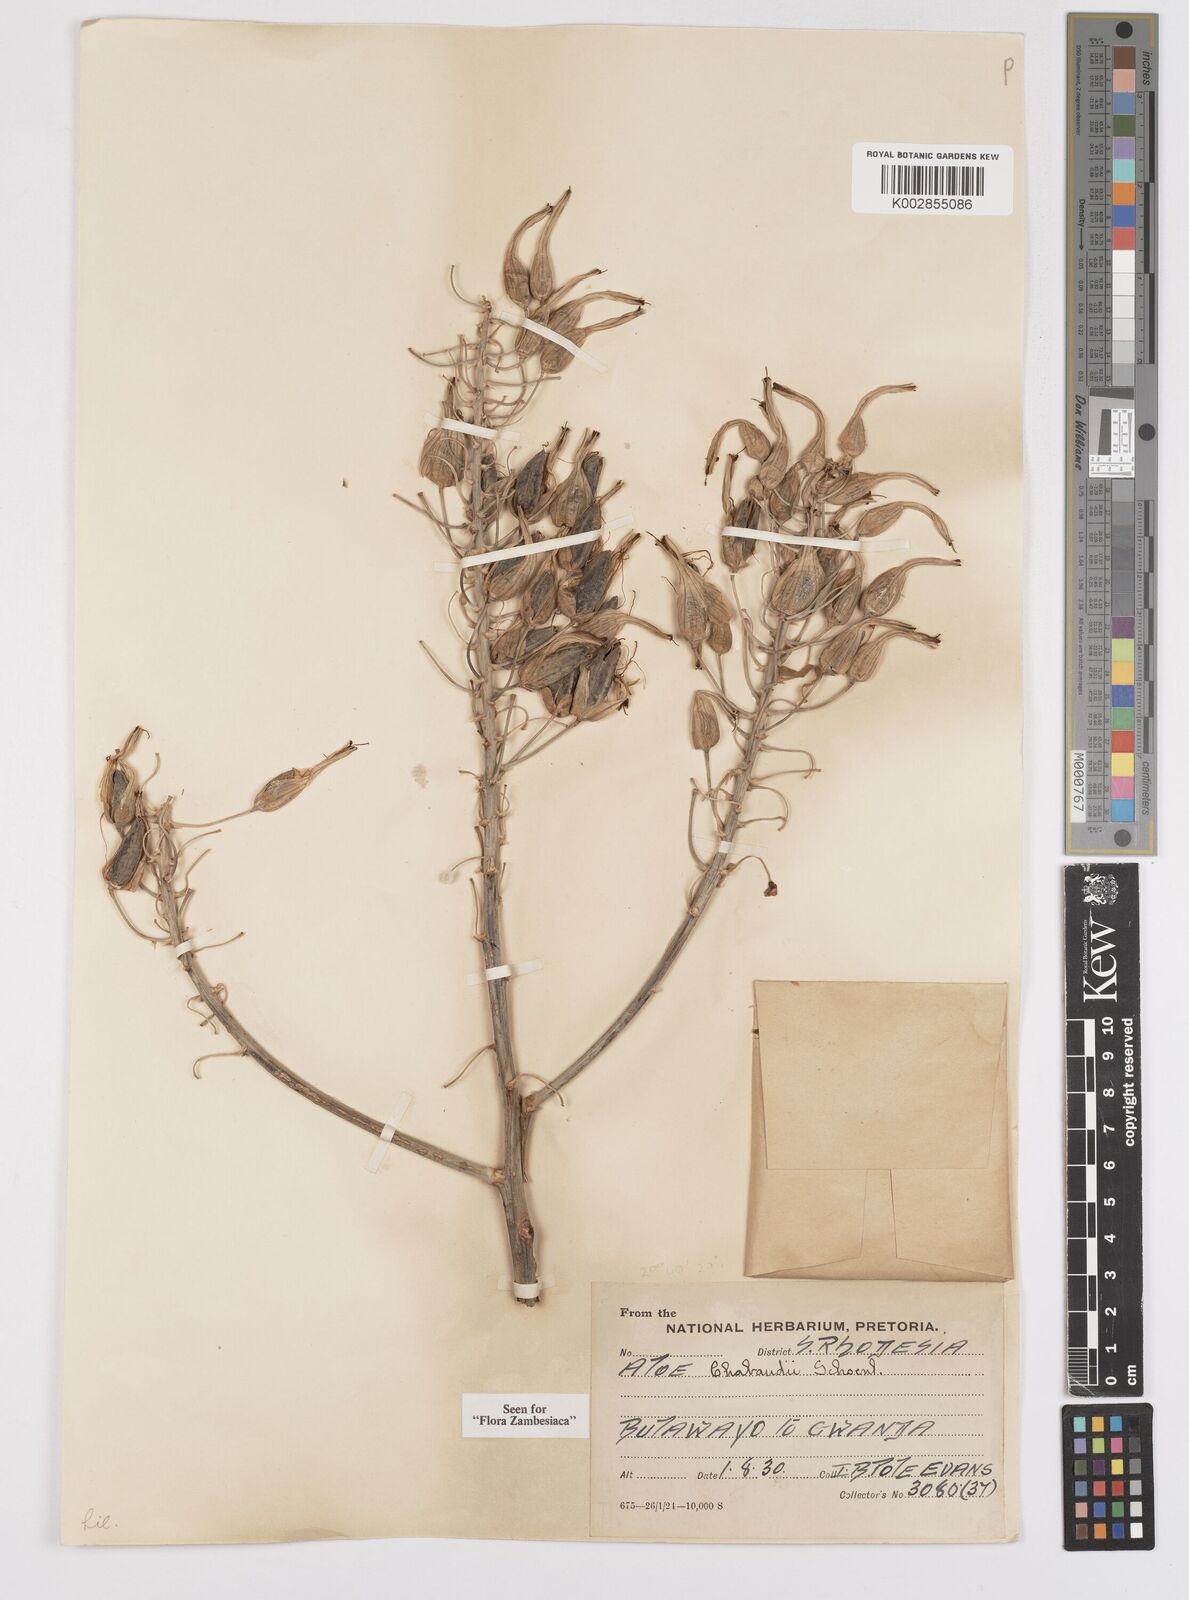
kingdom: Plantae
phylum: Tracheophyta
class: Liliopsida
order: Asparagales
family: Asphodelaceae
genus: Aloe
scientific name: Aloe chabaudii
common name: Chabaud's aloe
